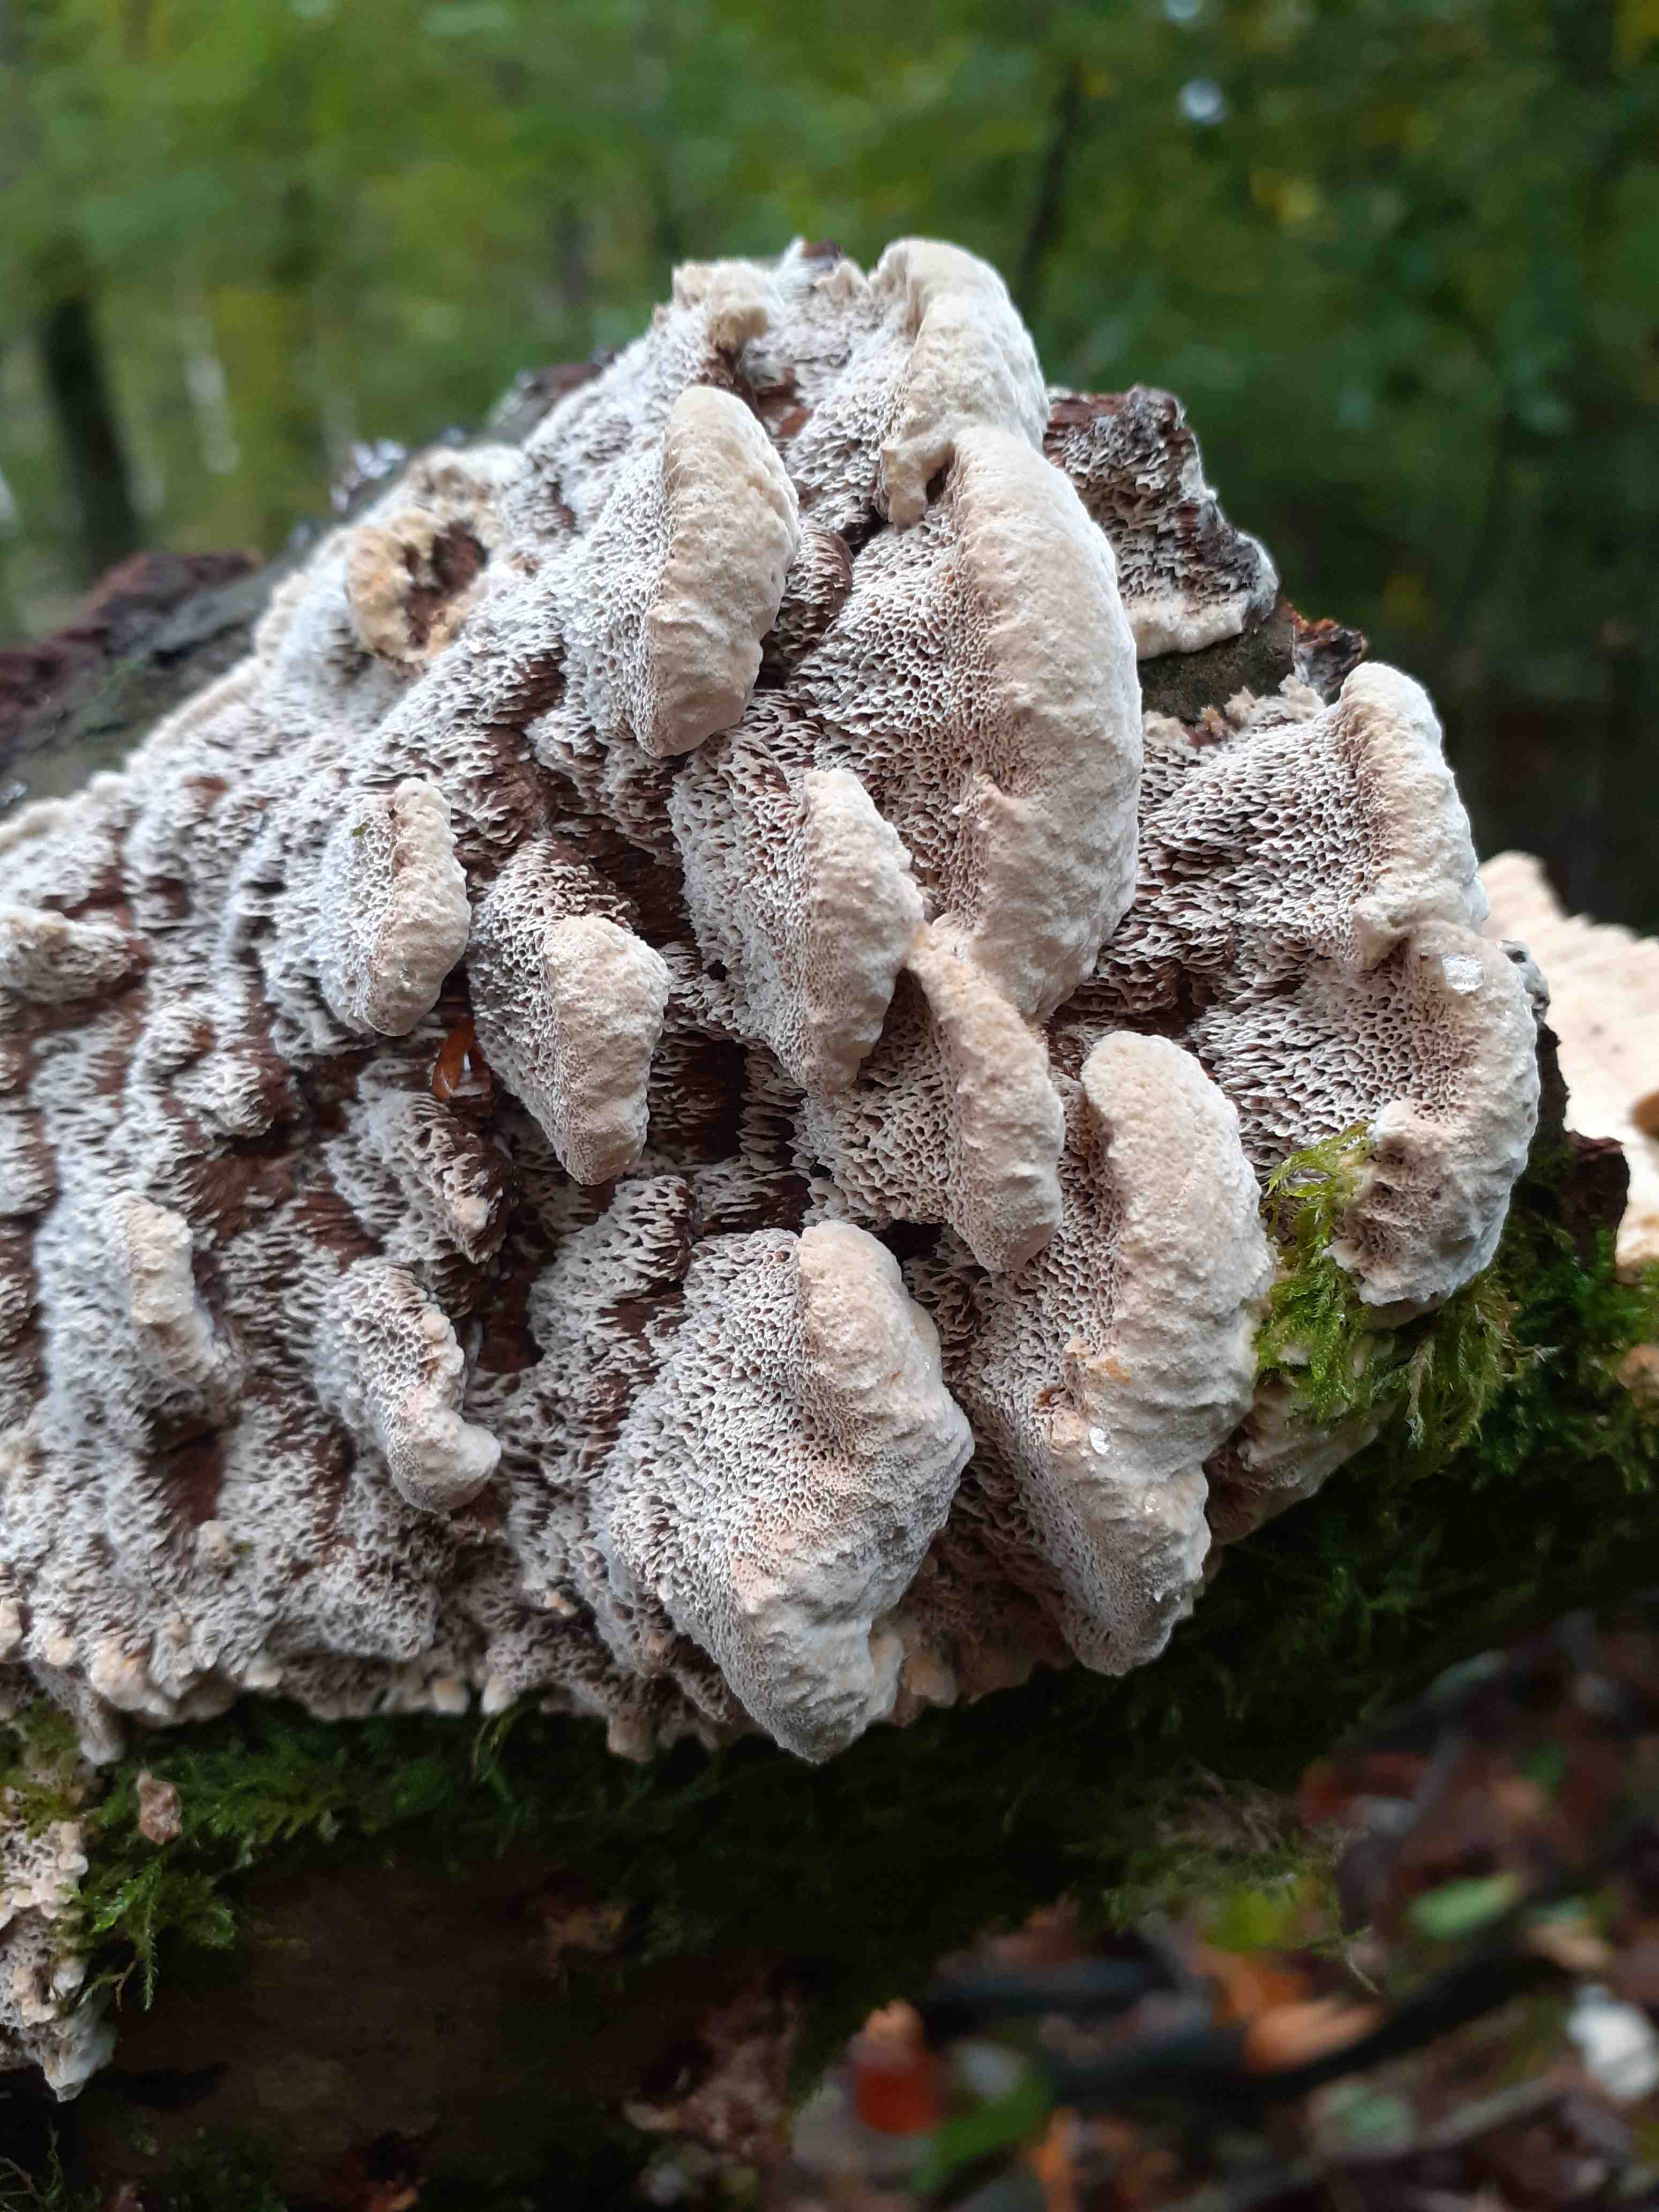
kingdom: Fungi
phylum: Basidiomycota
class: Agaricomycetes
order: Hymenochaetales
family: Hymenochaetaceae
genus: Mensularia
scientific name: Mensularia nodulosa
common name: bøge-spejlporesvamp
